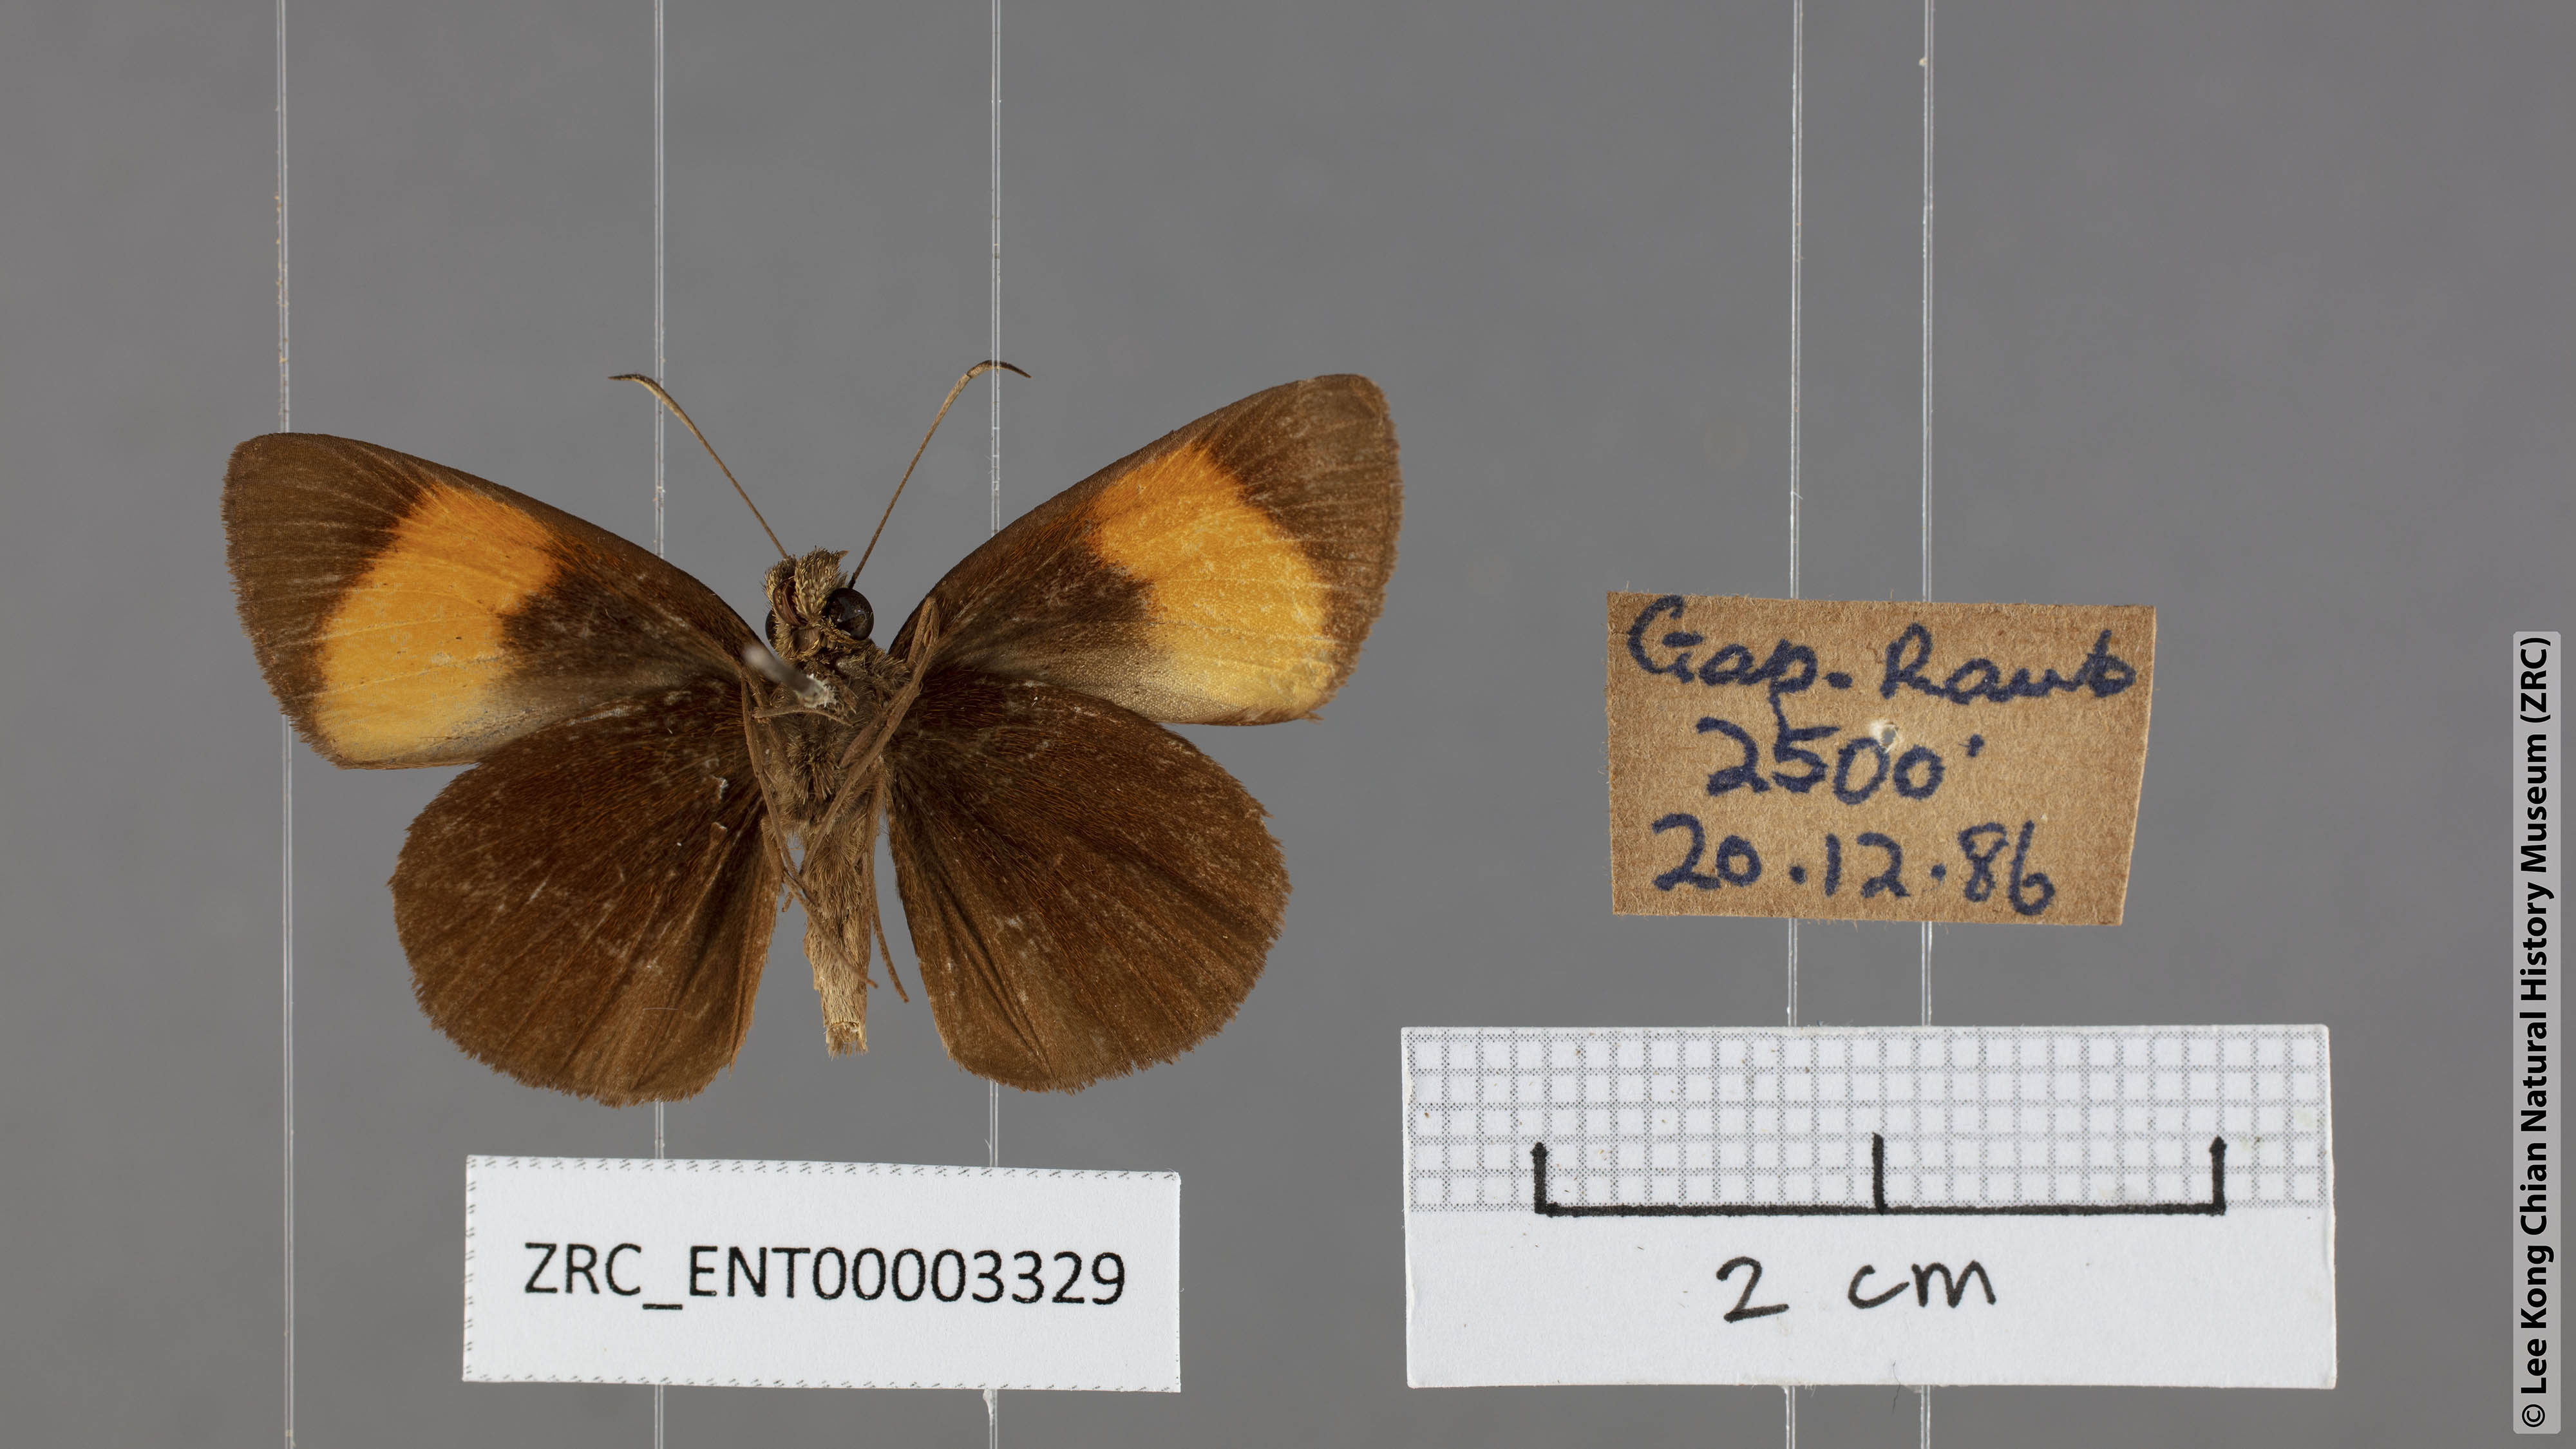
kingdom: Animalia
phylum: Arthropoda
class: Insecta
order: Lepidoptera
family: Hesperiidae
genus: Koruthaialos
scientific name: Koruthaialos rubecula
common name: Narrow-banded velvet bob
